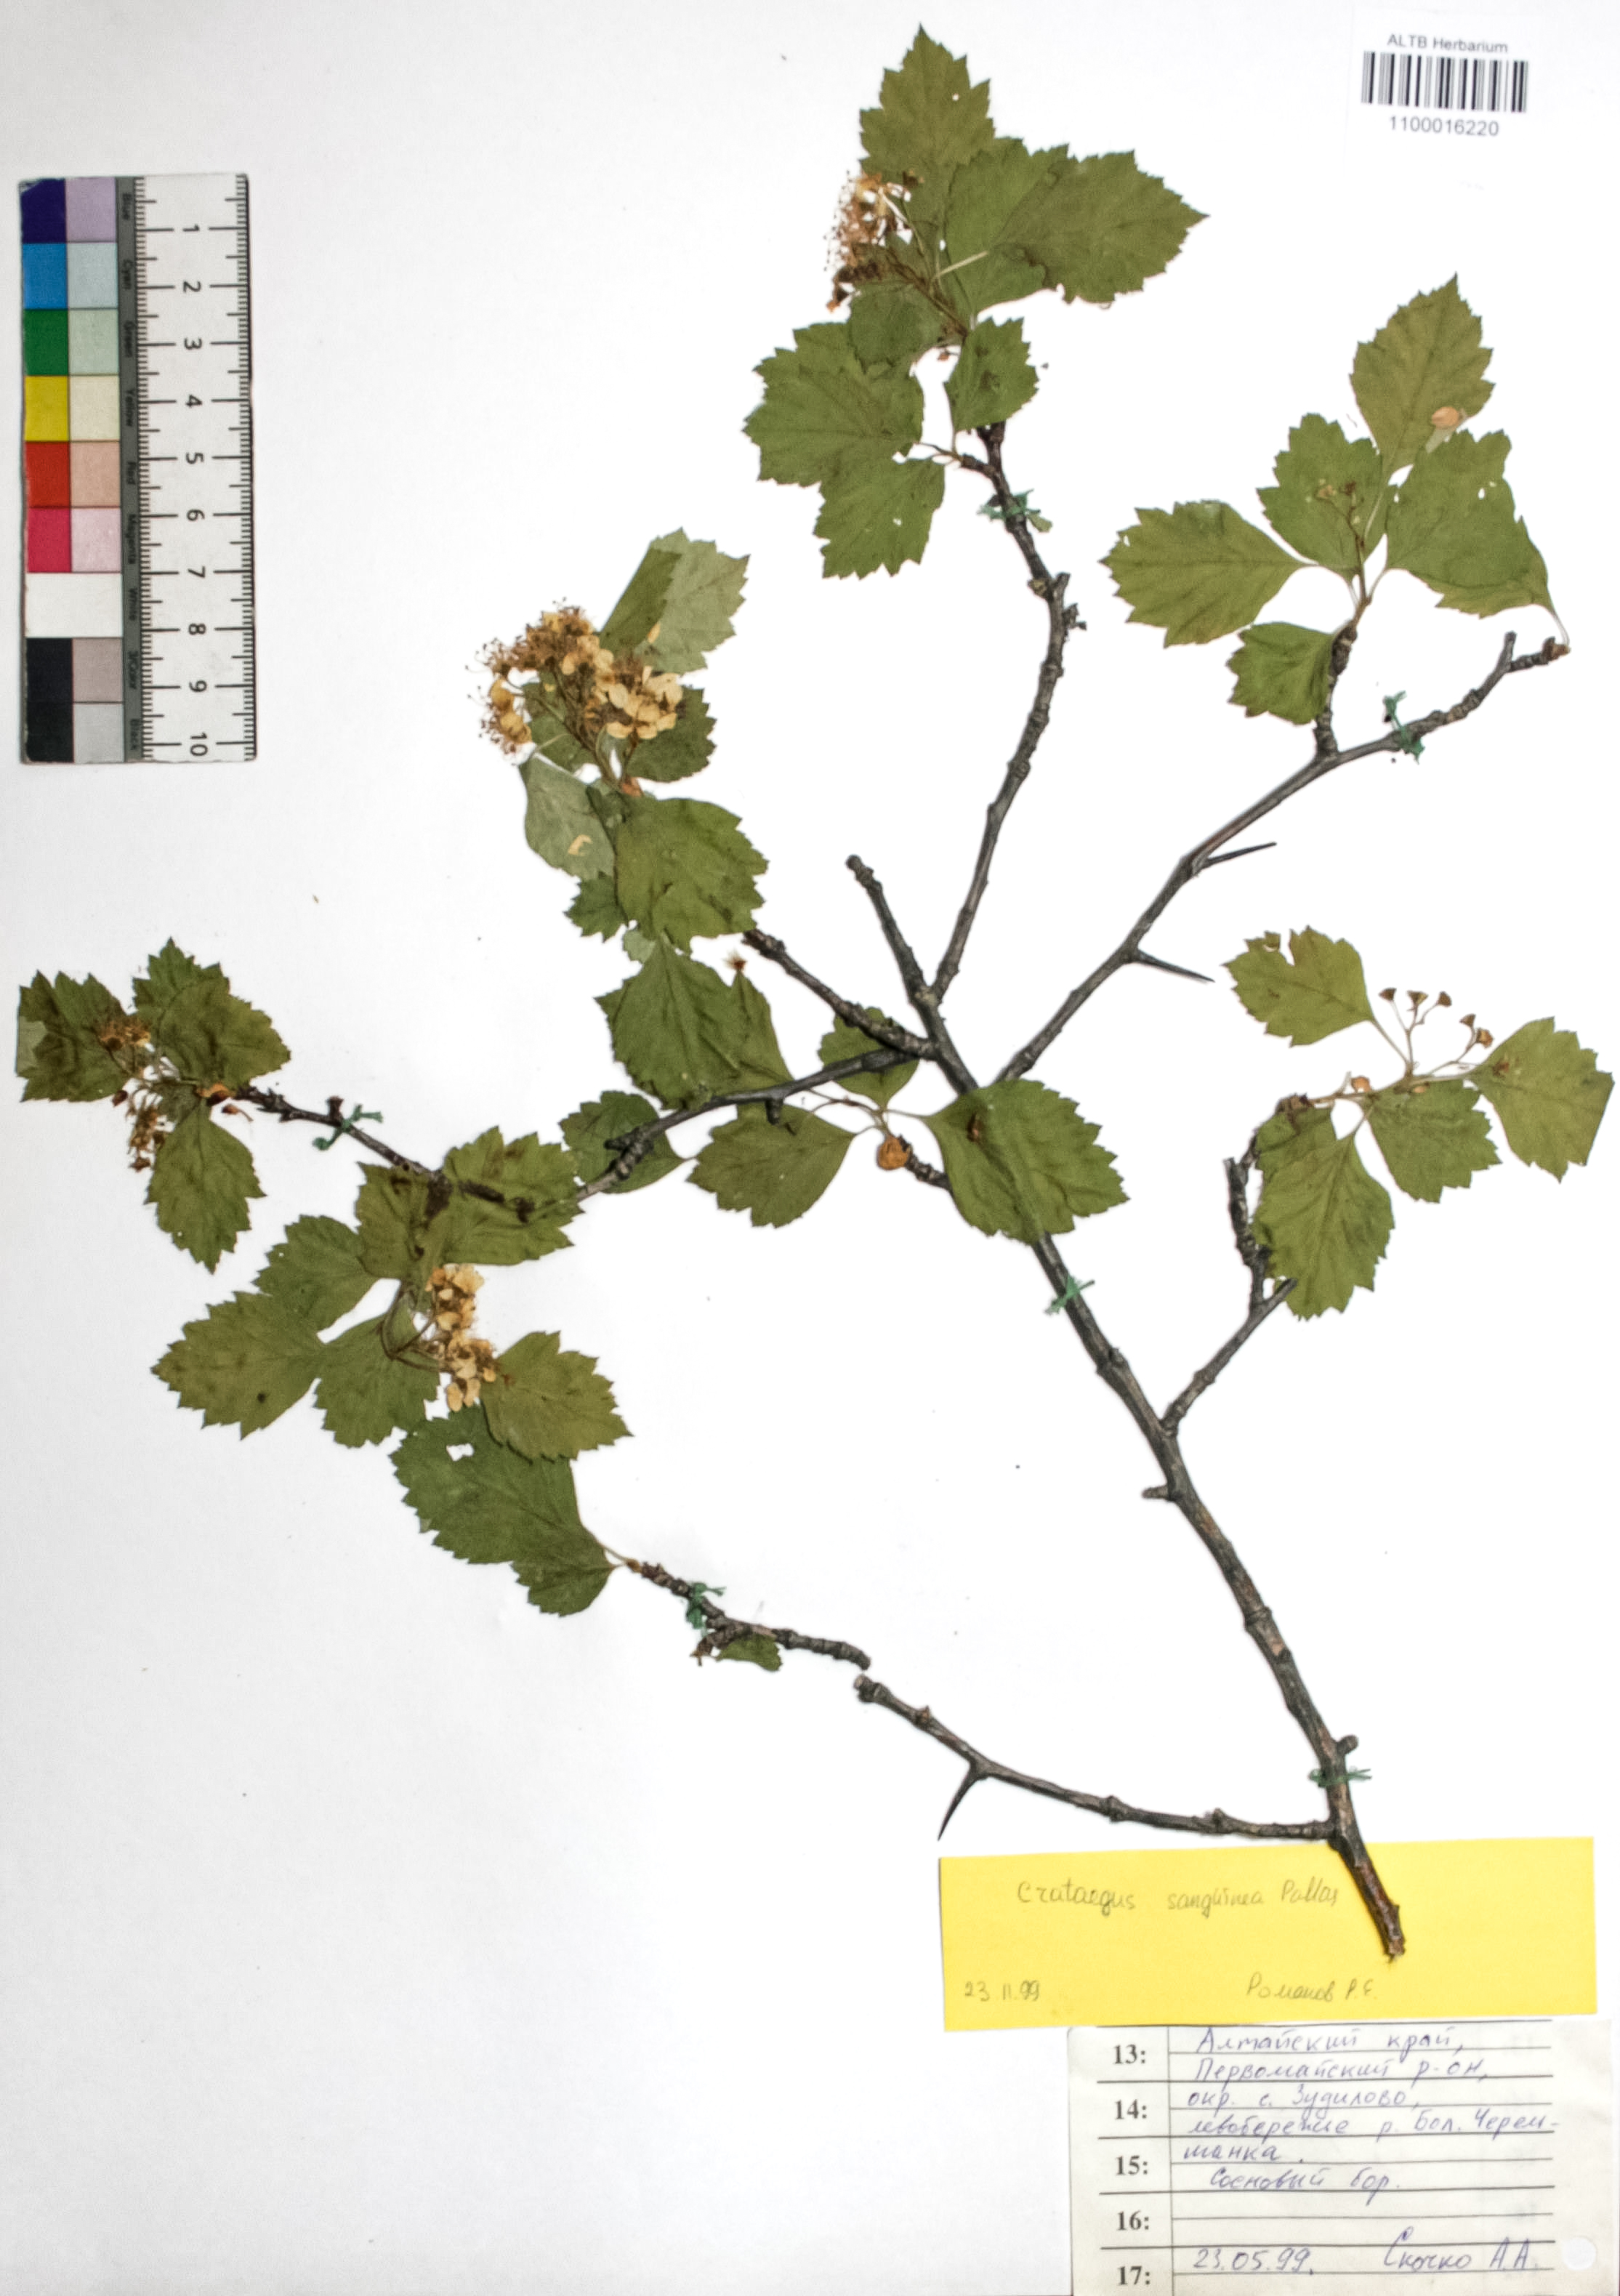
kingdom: Plantae
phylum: Tracheophyta
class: Magnoliopsida
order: Rosales
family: Rosaceae
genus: Crataegus
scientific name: Crataegus sanguinea
